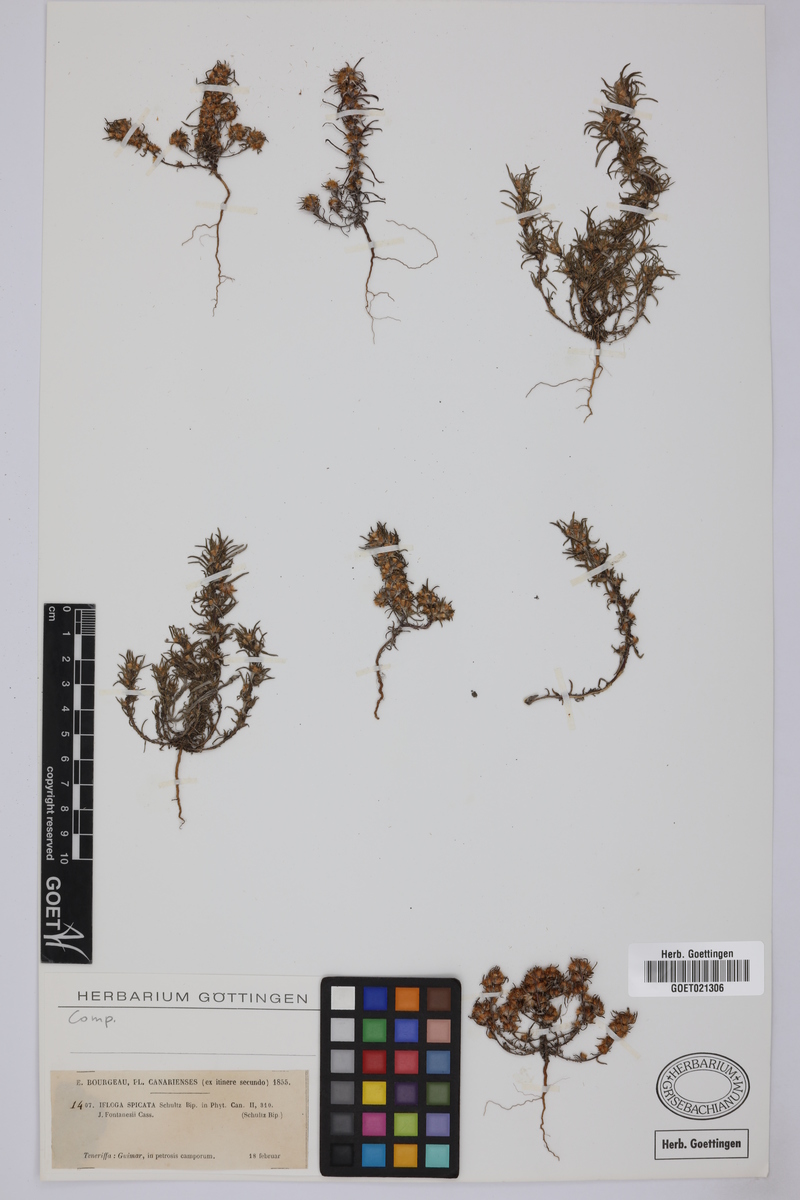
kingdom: Plantae
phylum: Tracheophyta
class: Magnoliopsida
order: Asterales
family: Asteraceae
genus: Ifloga
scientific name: Ifloga spicata
